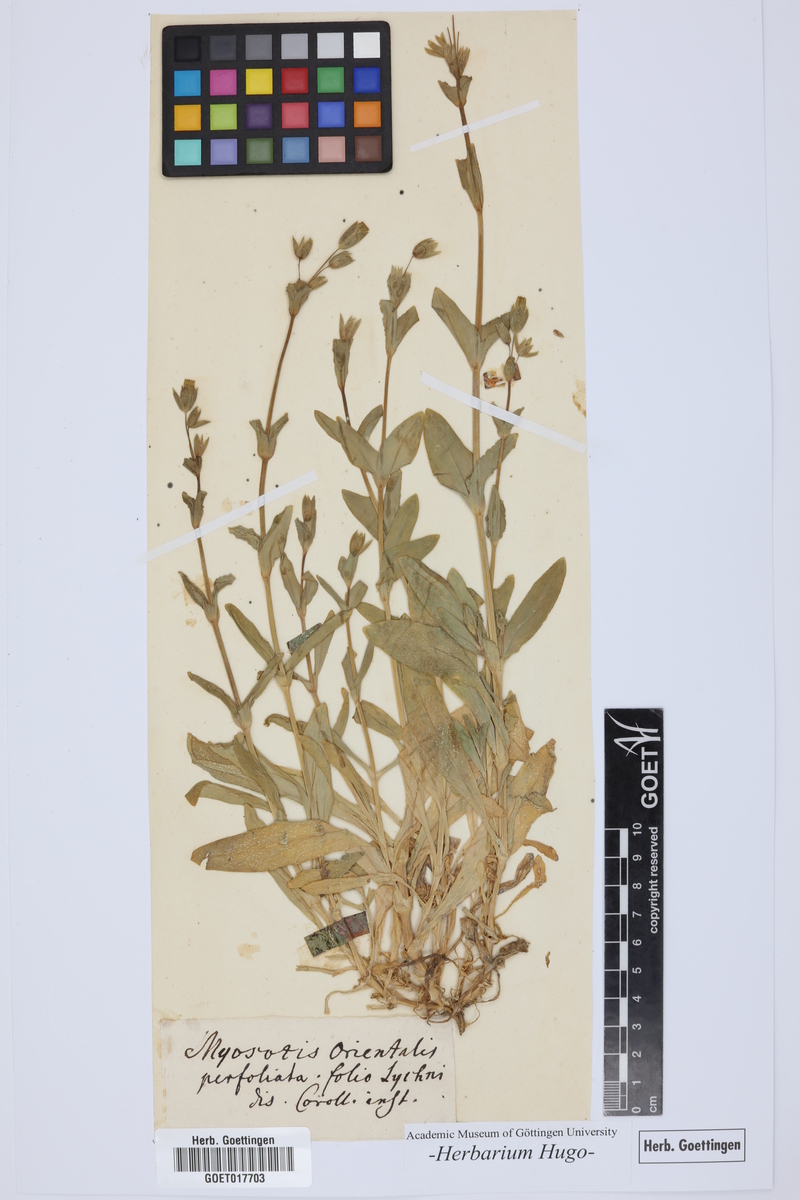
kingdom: Plantae
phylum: Tracheophyta
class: Magnoliopsida
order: Caryophyllales
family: Caryophyllaceae
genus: Dichodon
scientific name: Dichodon perfoliatum
